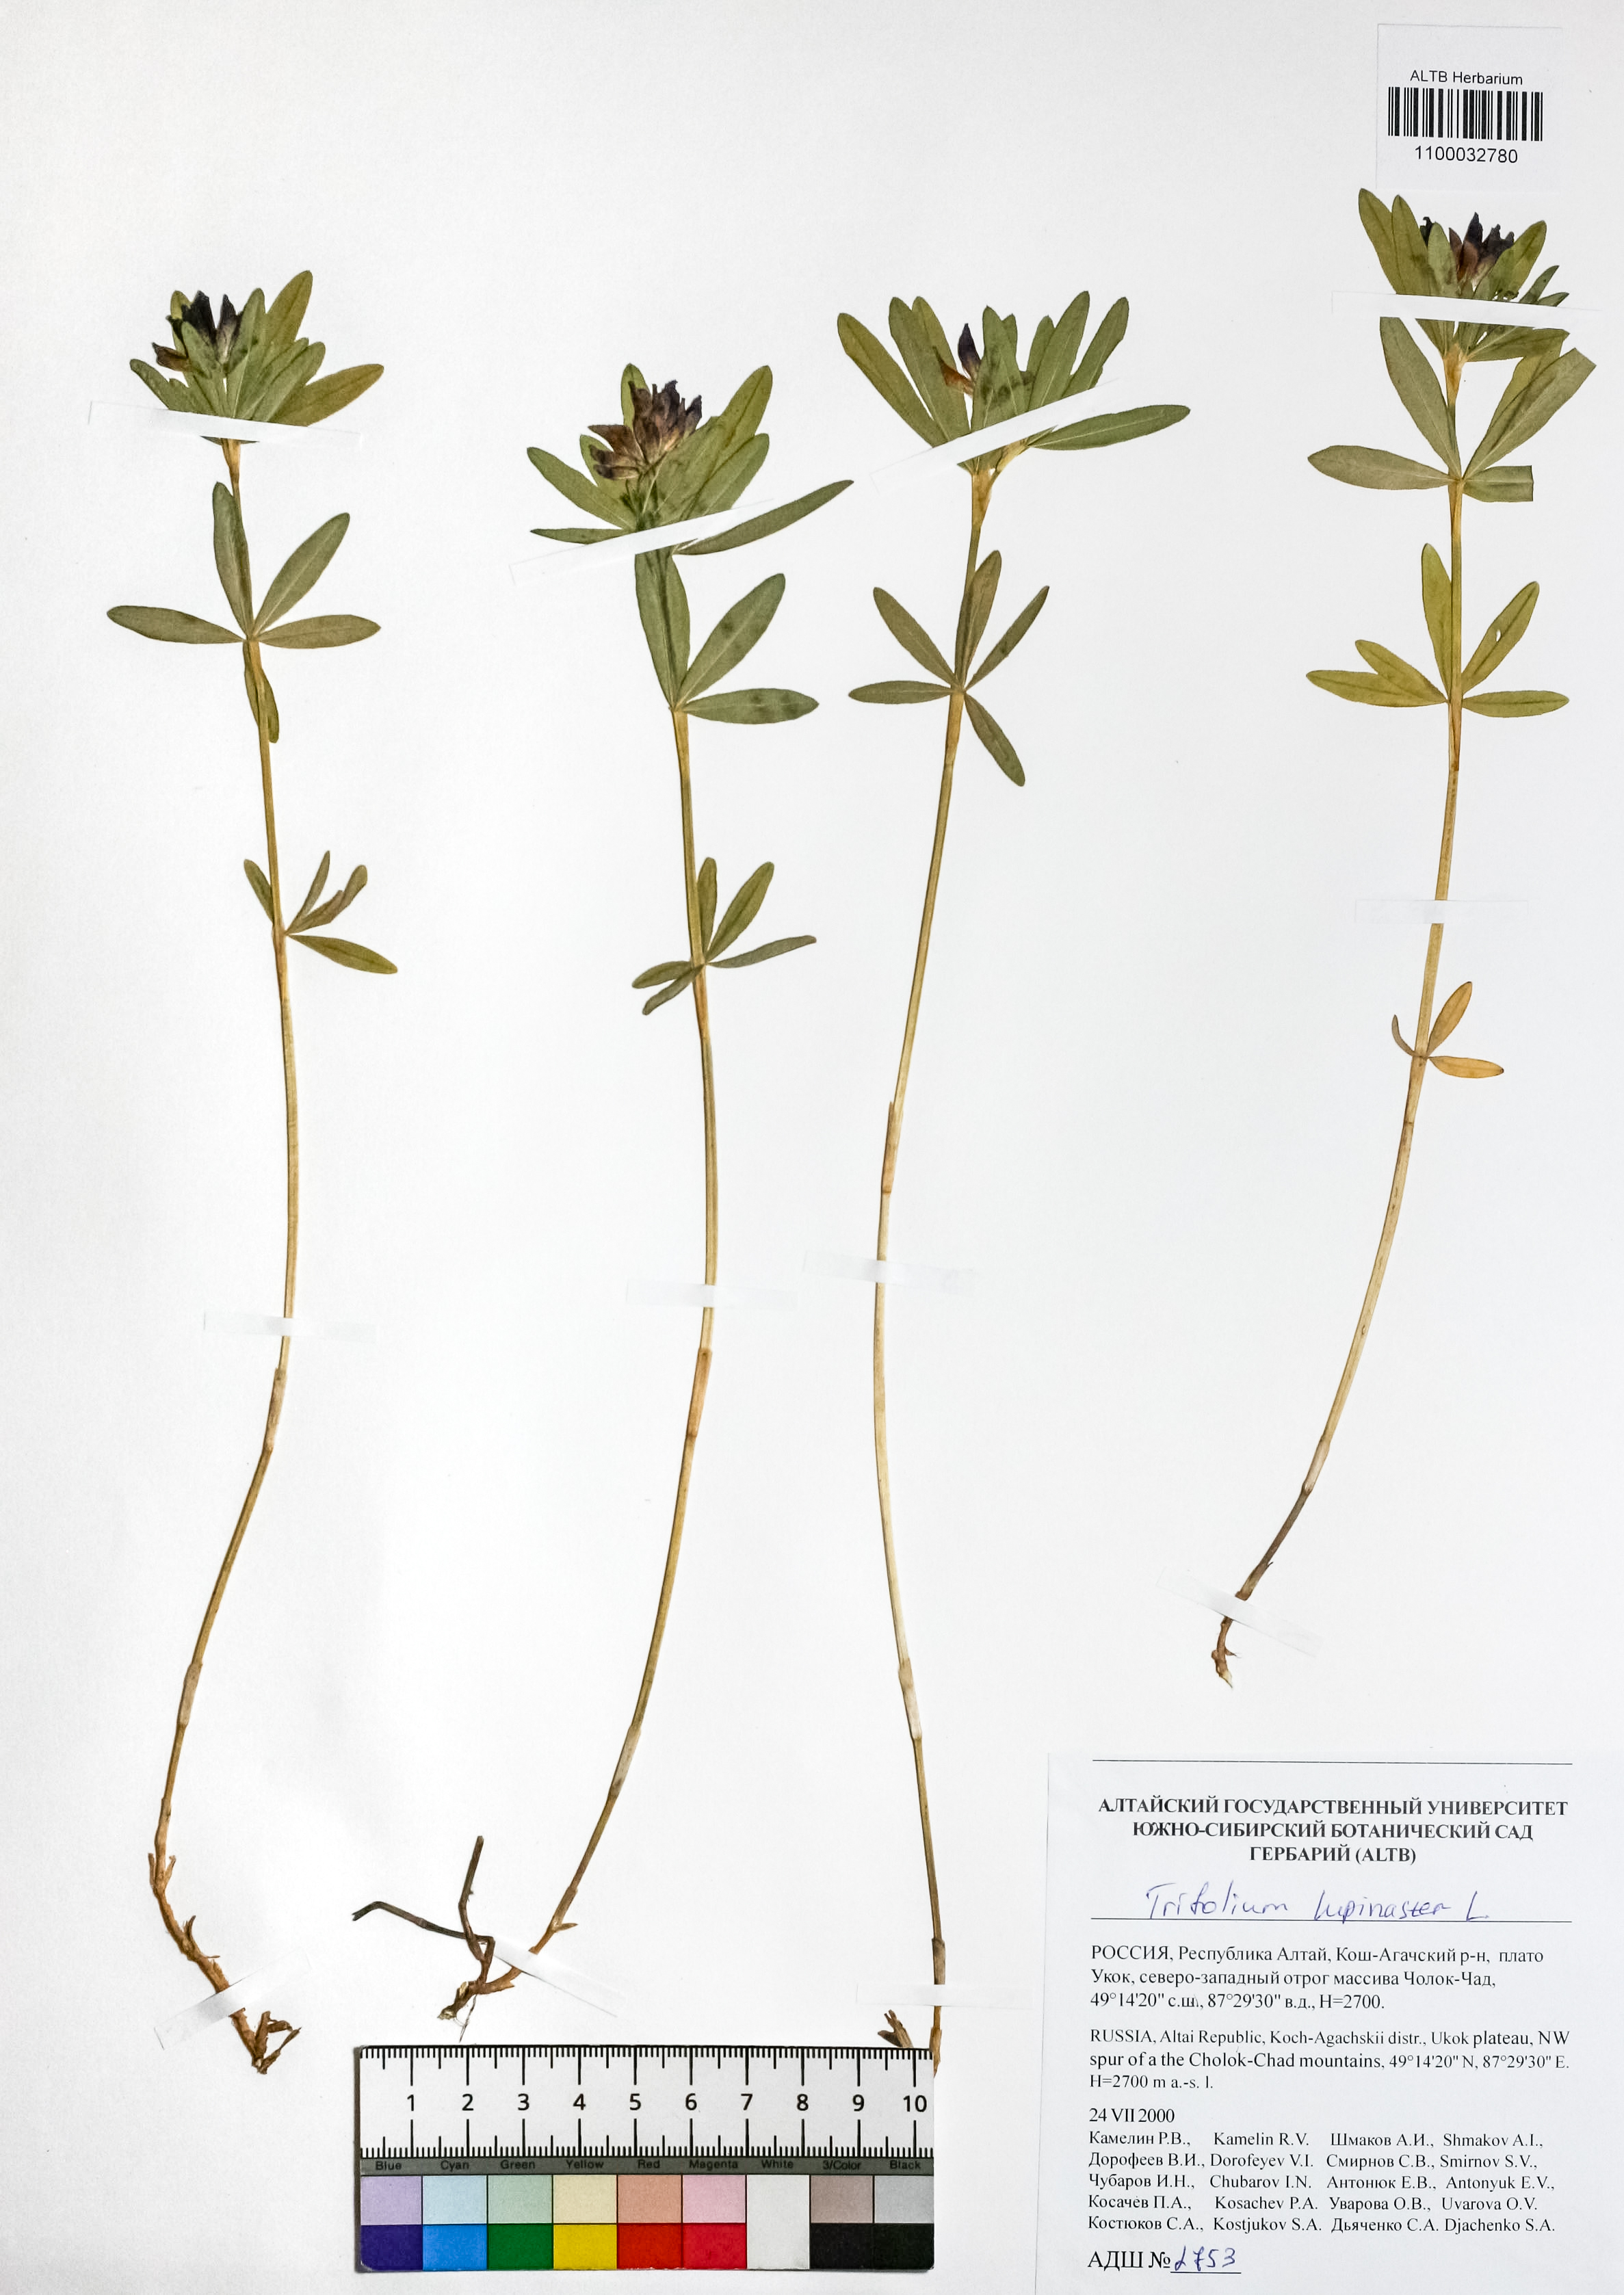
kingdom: Plantae
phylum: Tracheophyta
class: Magnoliopsida
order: Fabales
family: Fabaceae
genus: Trifolium
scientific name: Trifolium lupinaster
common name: Lupine clover
